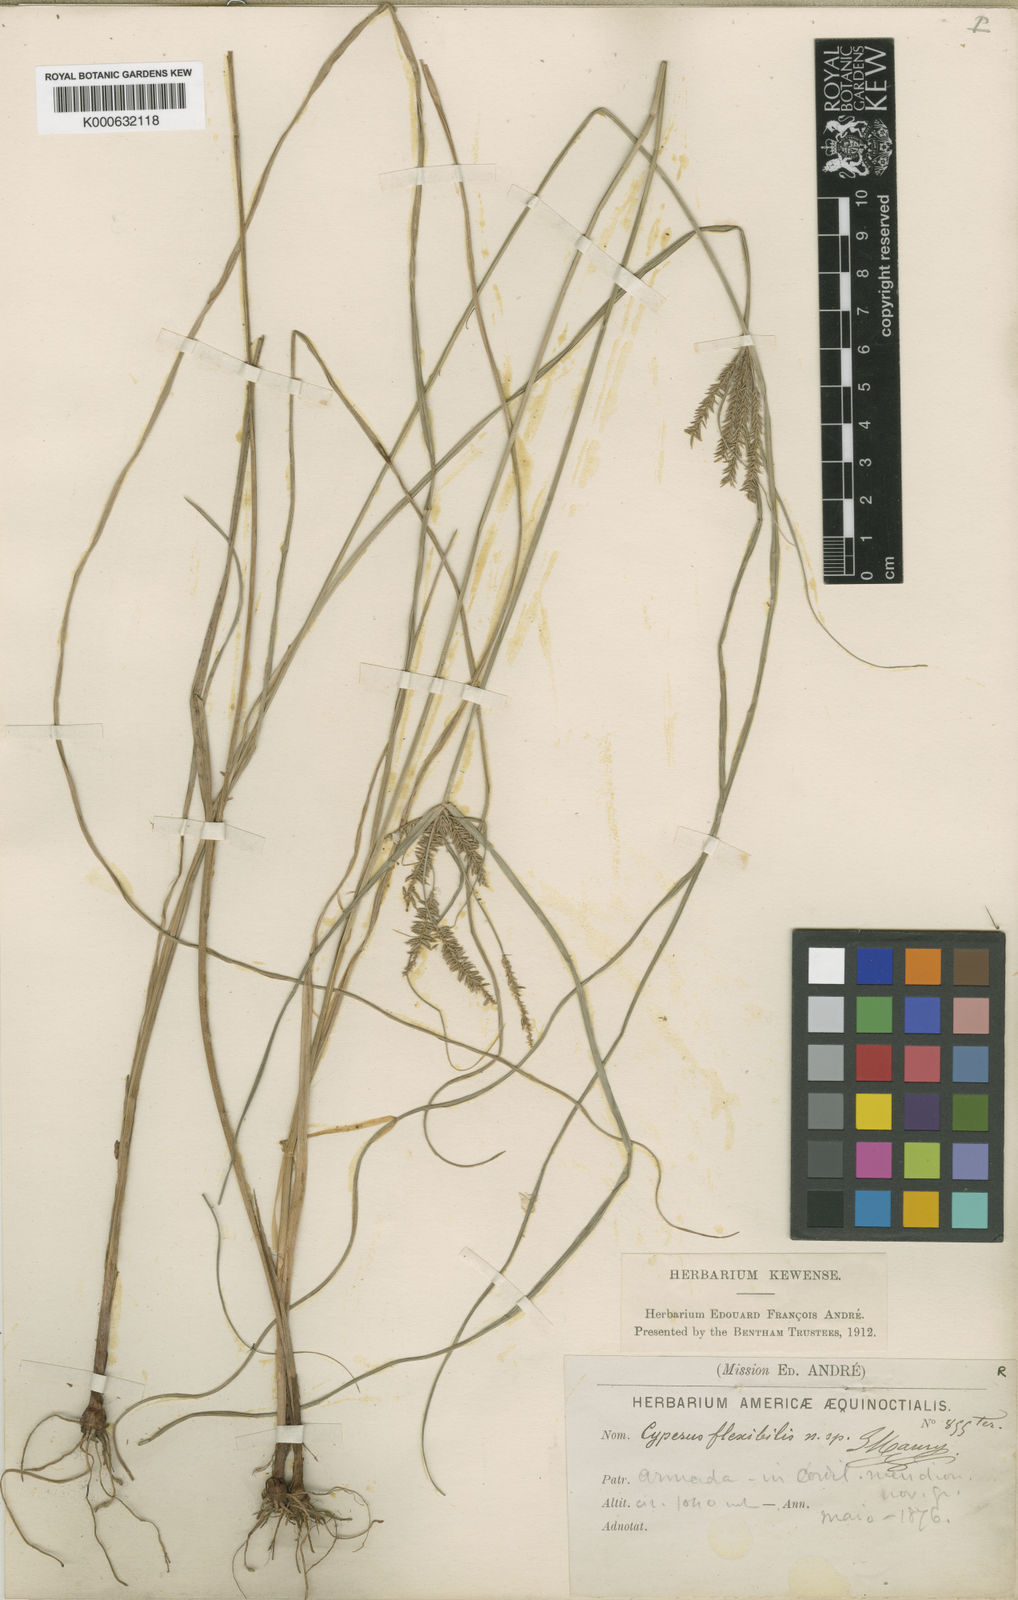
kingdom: Plantae
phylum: Tracheophyta
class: Liliopsida
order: Poales
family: Cyperaceae
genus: Cyperus
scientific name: Cyperus tenuis
